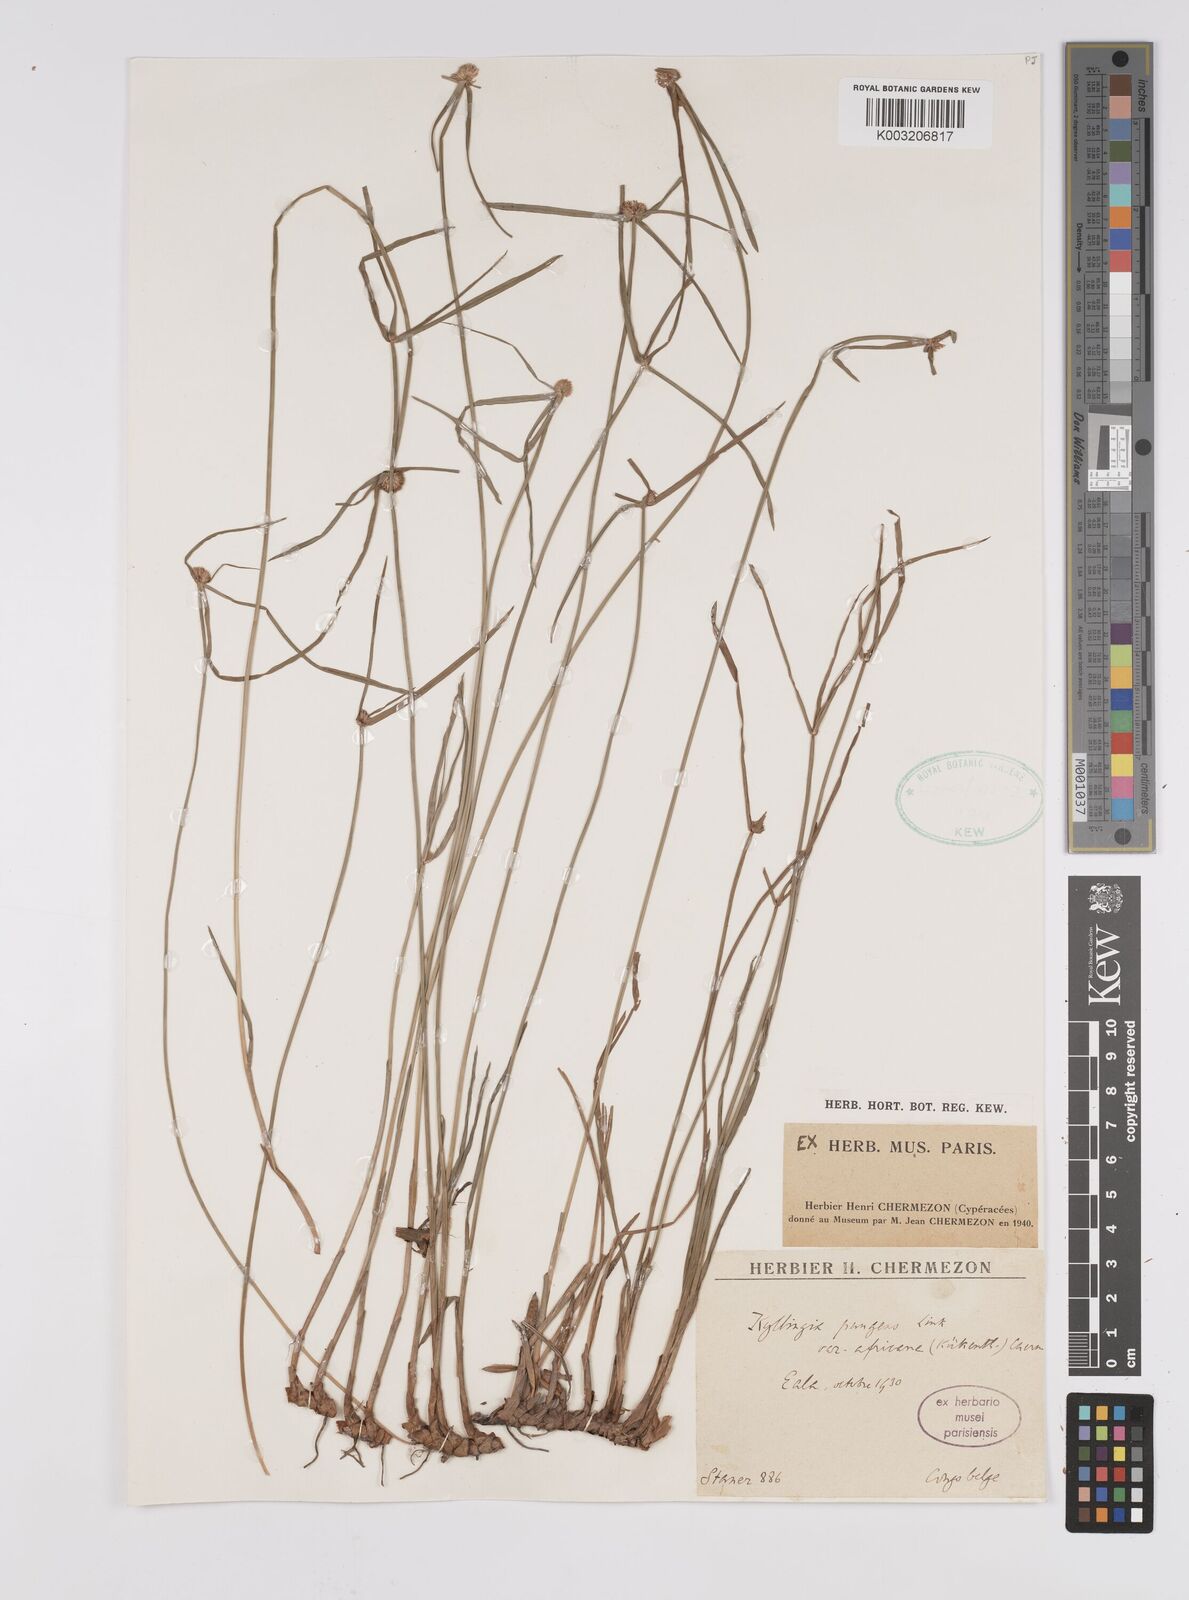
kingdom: Plantae
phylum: Tracheophyta
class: Liliopsida
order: Poales
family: Cyperaceae
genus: Cyperus
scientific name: Cyperus
